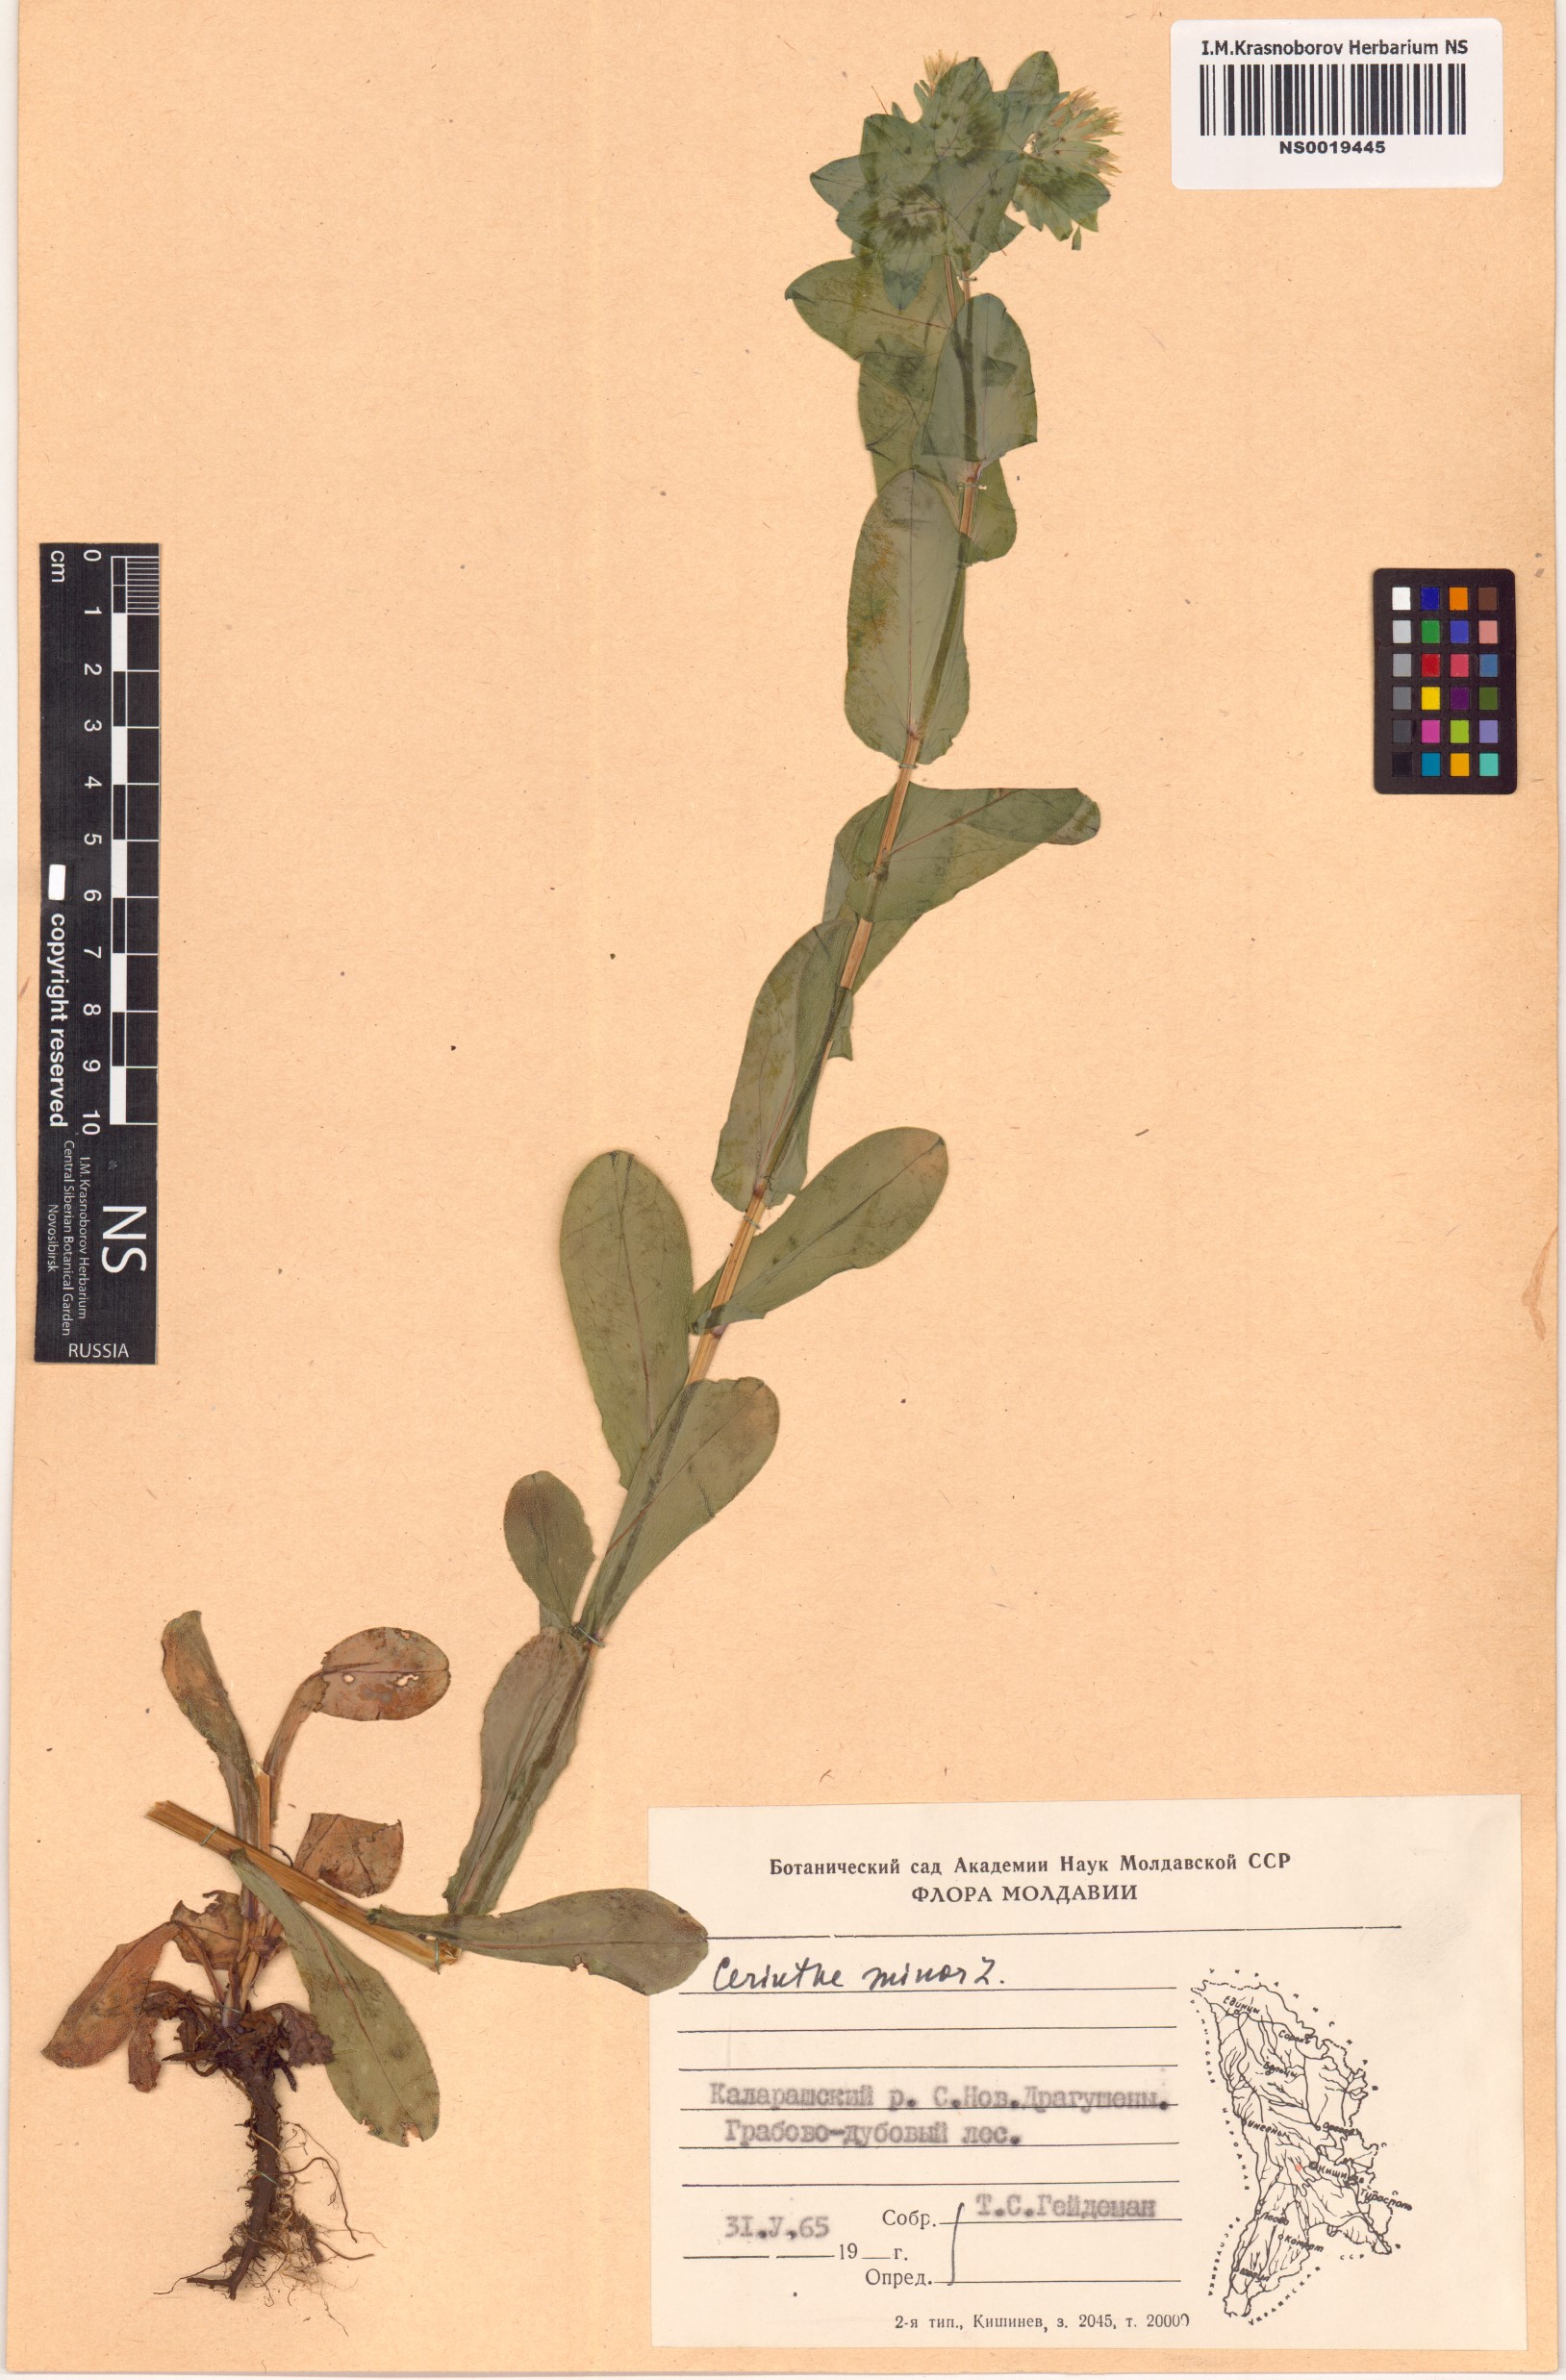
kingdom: Plantae
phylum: Tracheophyta
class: Magnoliopsida
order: Boraginales
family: Boraginaceae
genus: Cerinthe
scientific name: Cerinthe minor
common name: Lesser honeywort
